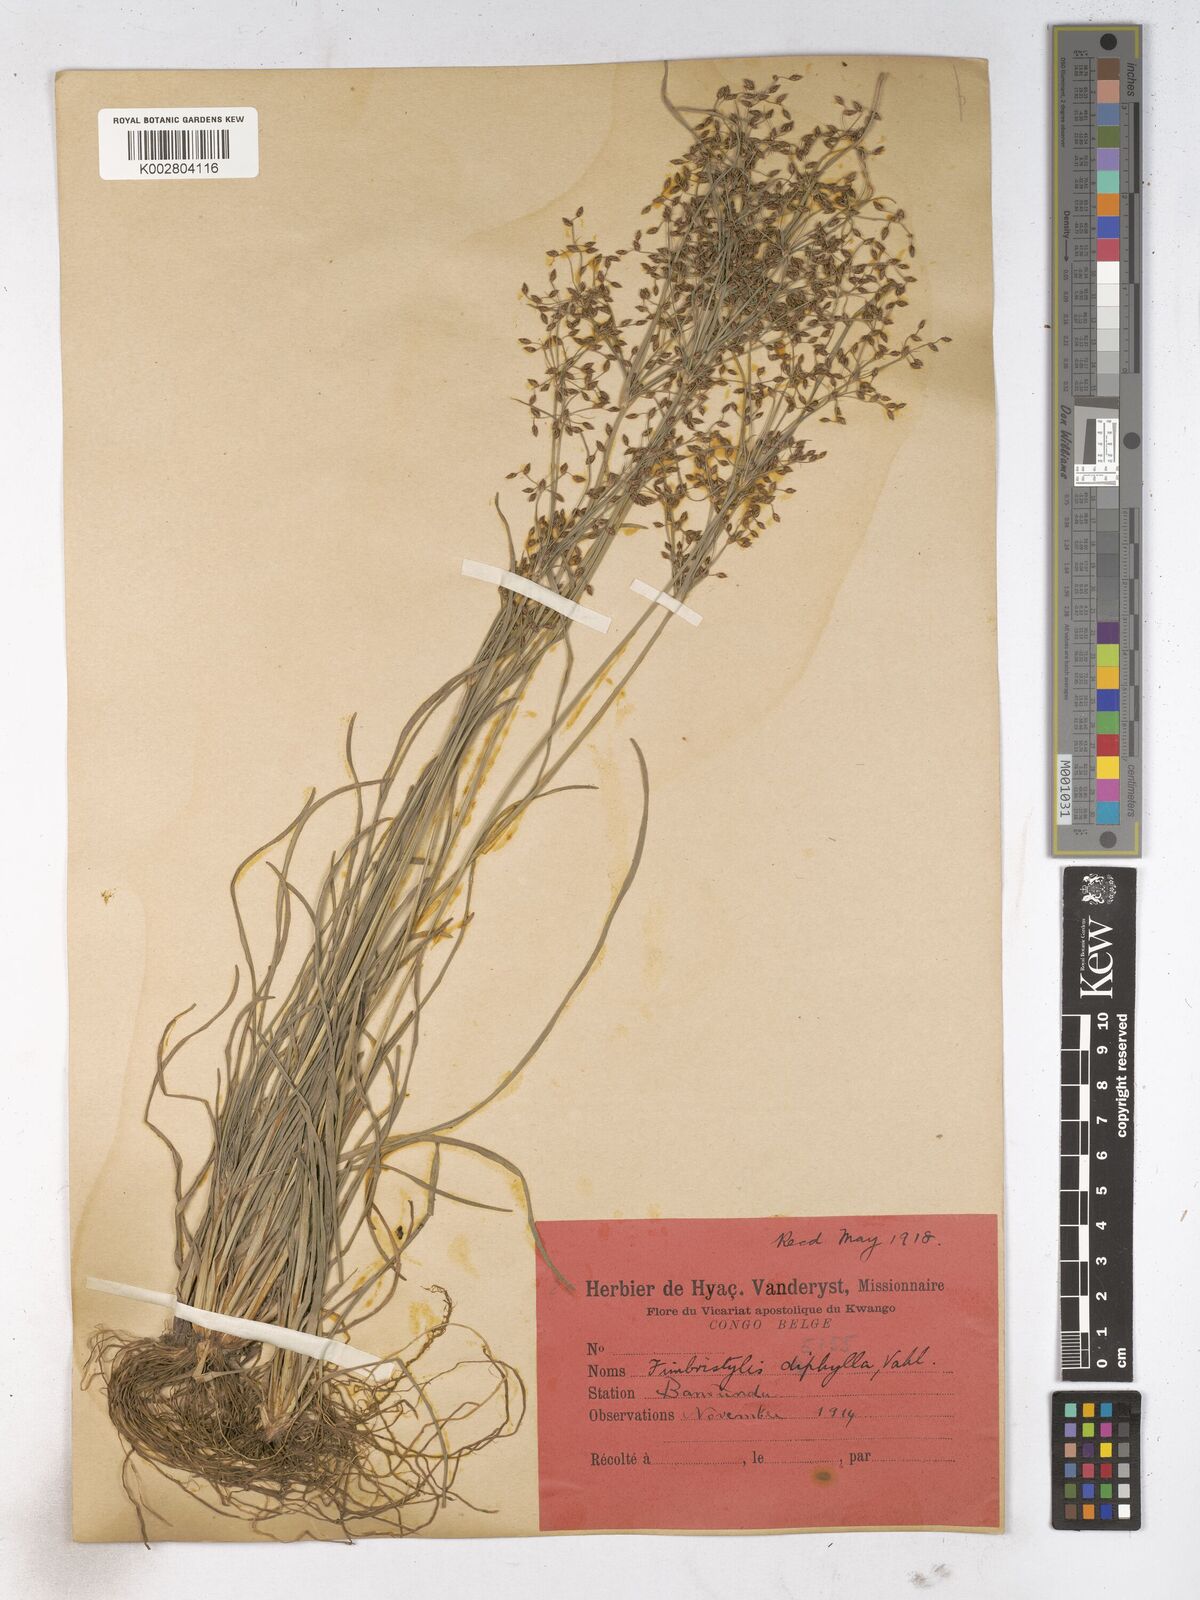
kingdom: Plantae
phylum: Tracheophyta
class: Liliopsida
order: Poales
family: Cyperaceae
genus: Fimbristylis
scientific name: Fimbristylis dichotoma
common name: Forked fimbry
